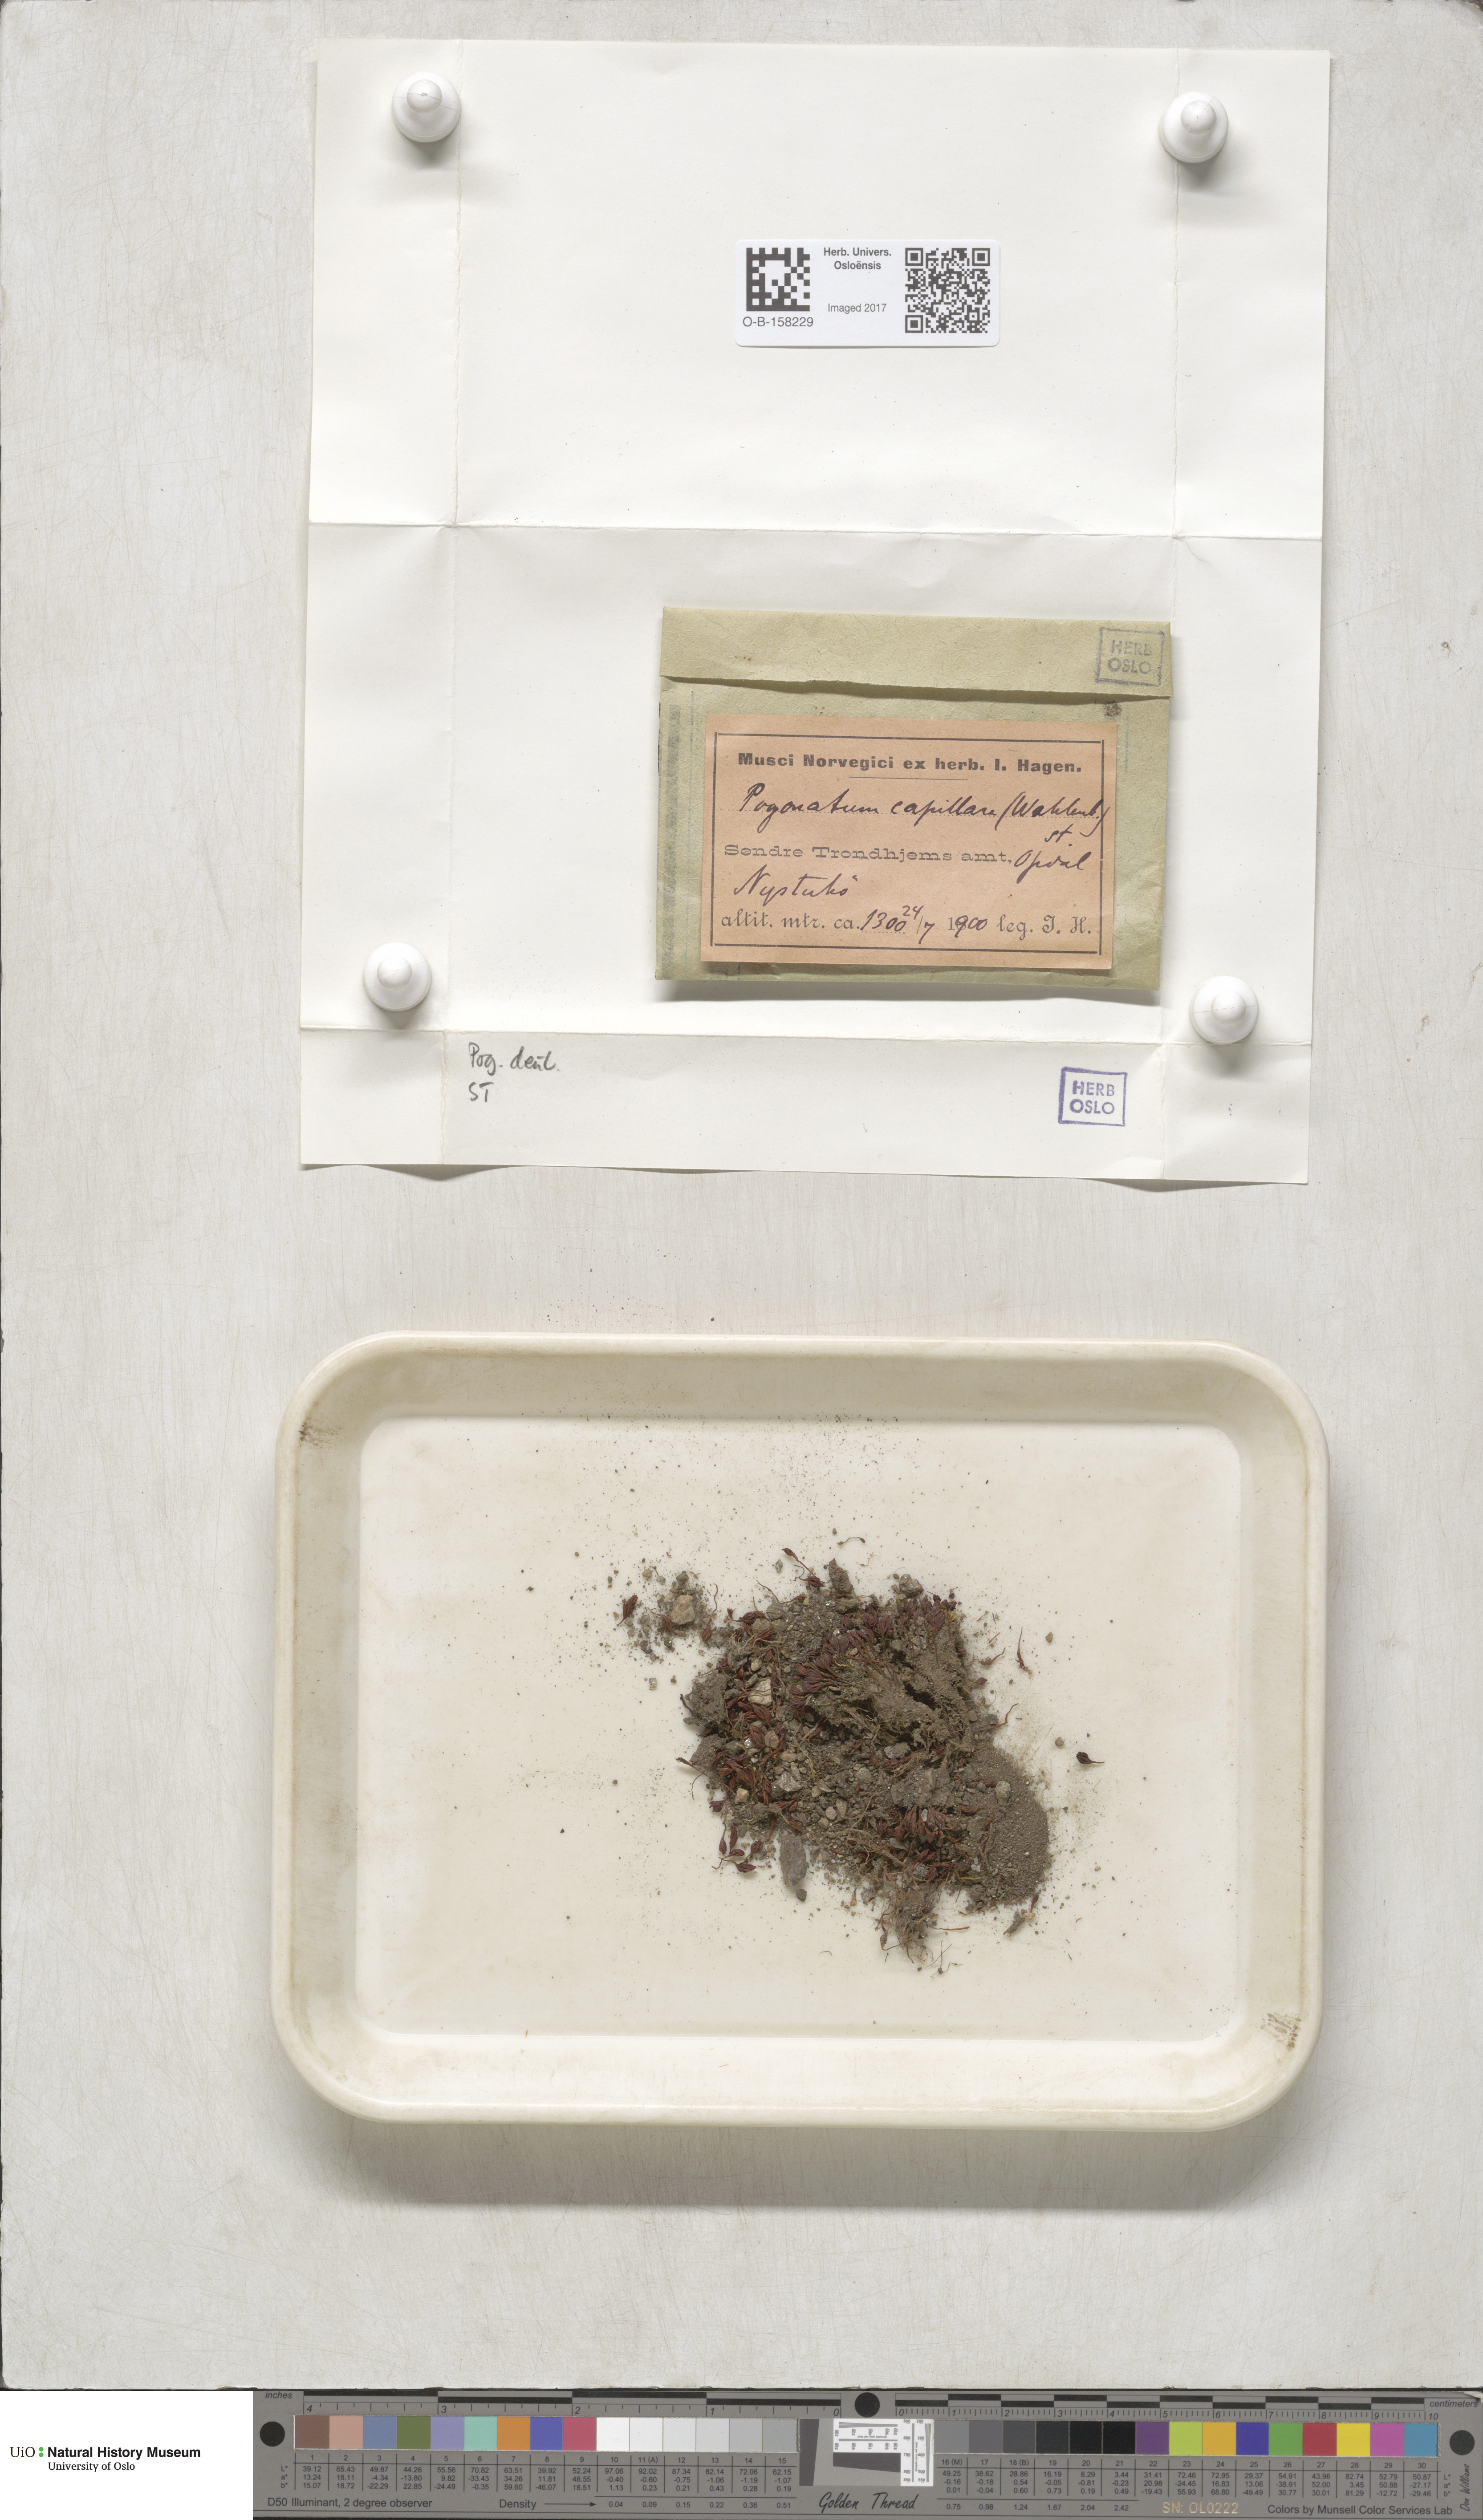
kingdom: Plantae
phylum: Bryophyta
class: Polytrichopsida
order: Polytrichales
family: Polytrichaceae
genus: Pogonatum
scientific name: Pogonatum dentatum
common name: Mountain hair moss
